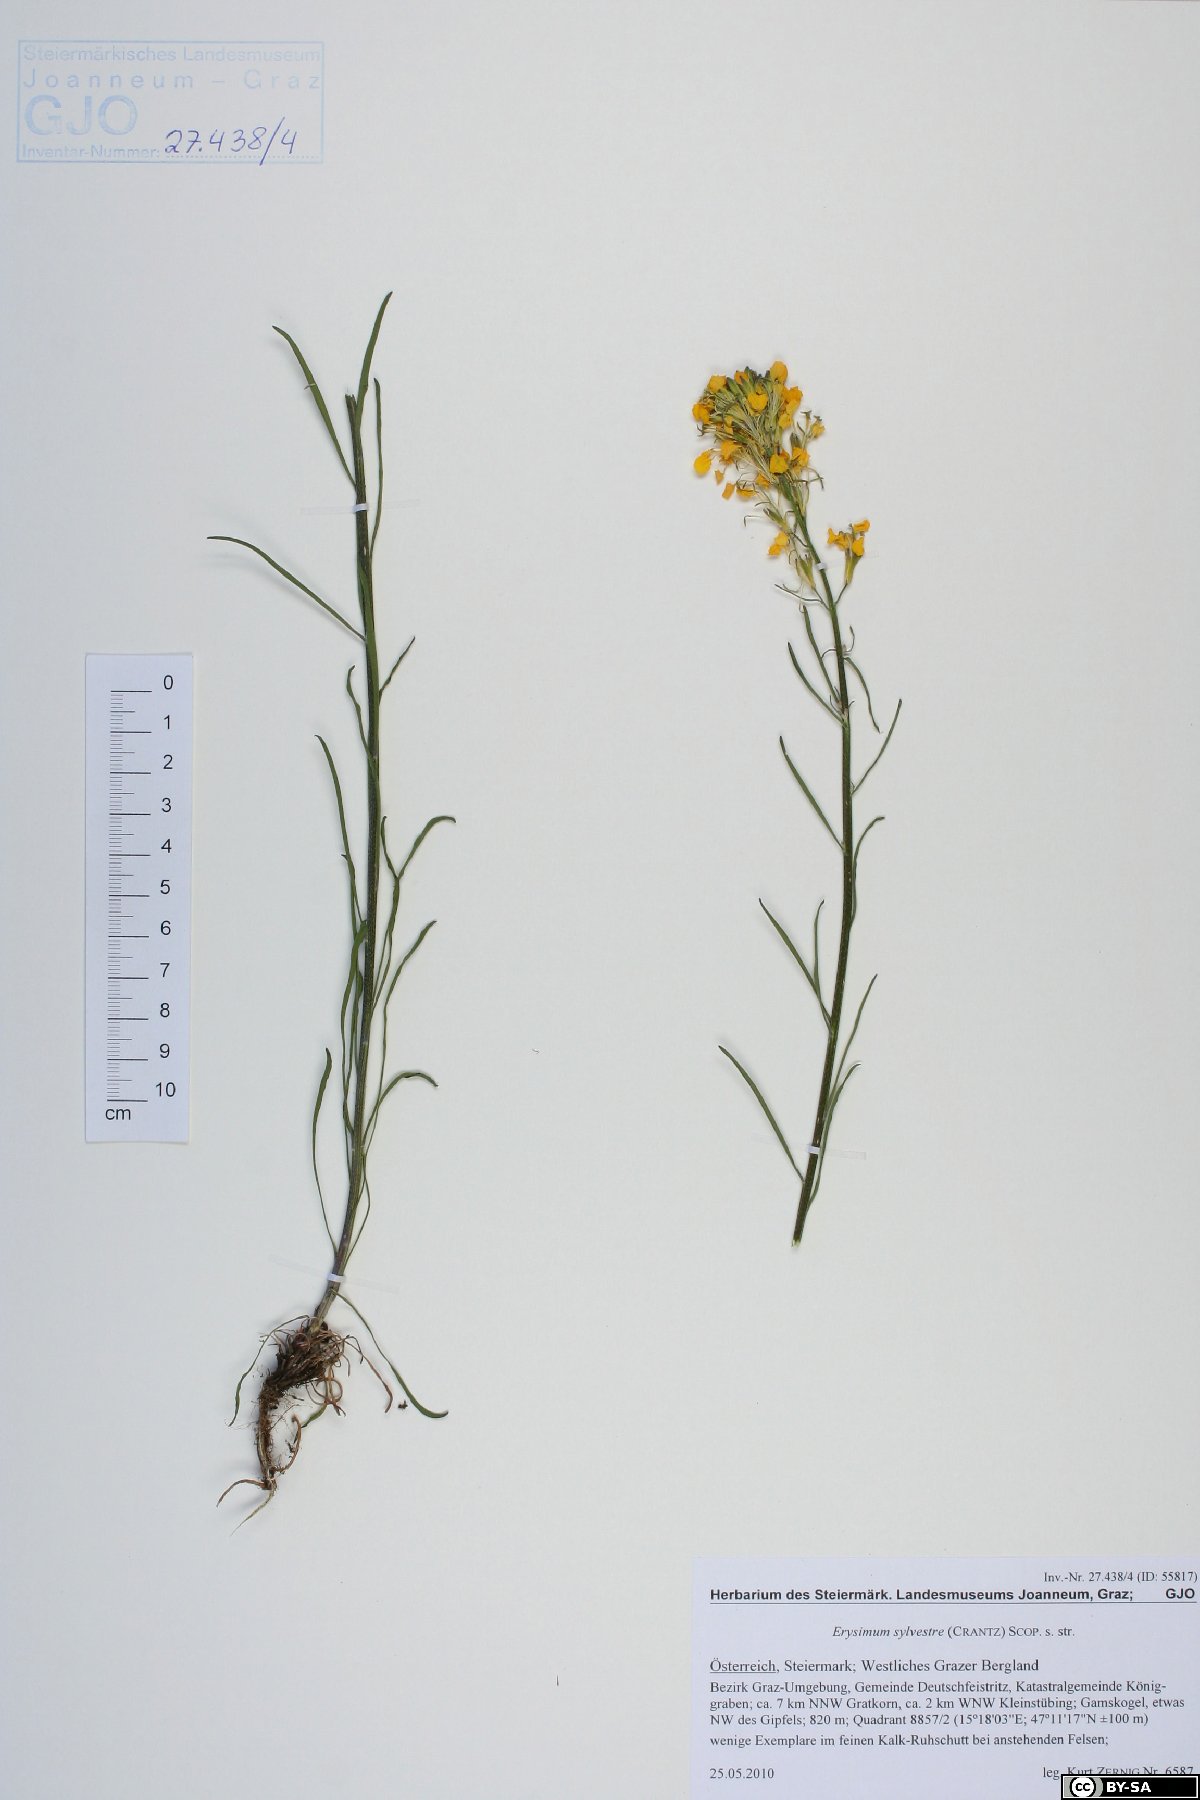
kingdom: Plantae
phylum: Tracheophyta
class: Magnoliopsida
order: Brassicales
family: Brassicaceae
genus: Erysimum
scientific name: Erysimum sylvestre
